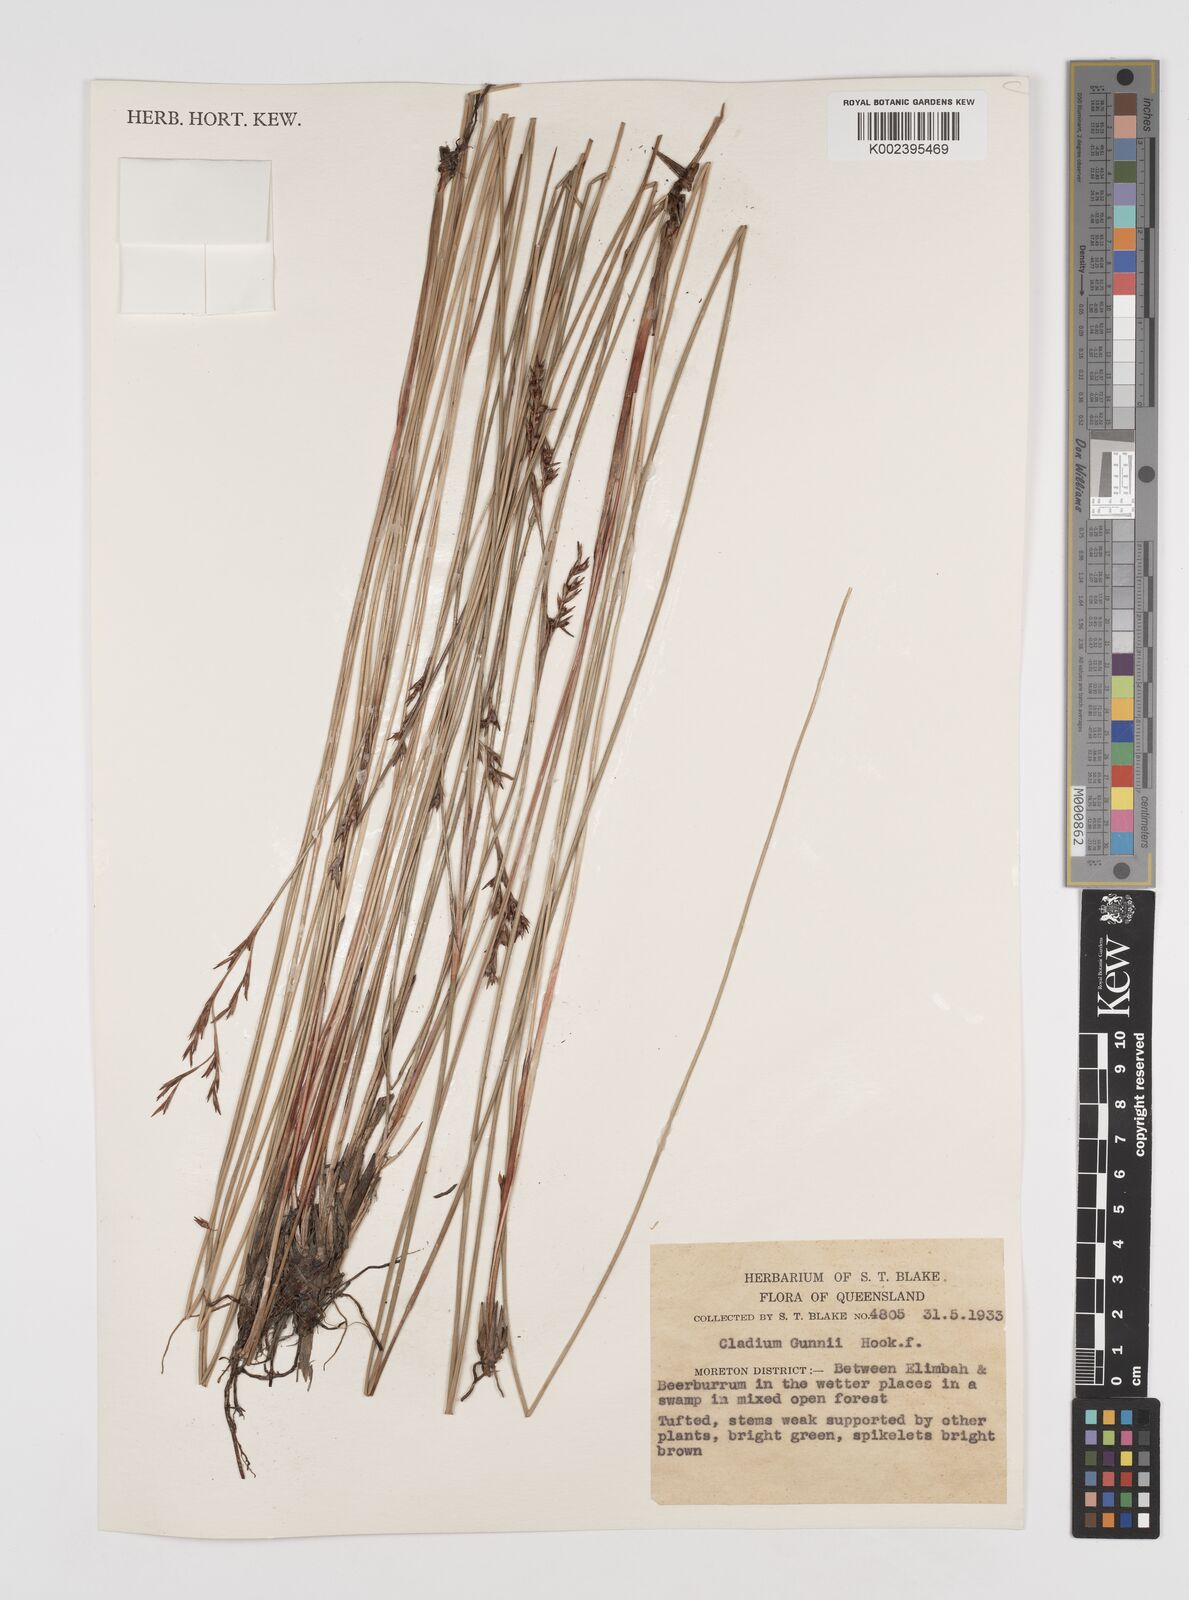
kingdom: Plantae
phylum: Tracheophyta
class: Liliopsida
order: Poales
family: Cyperaceae
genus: Machaerina
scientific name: Machaerina gunnii
